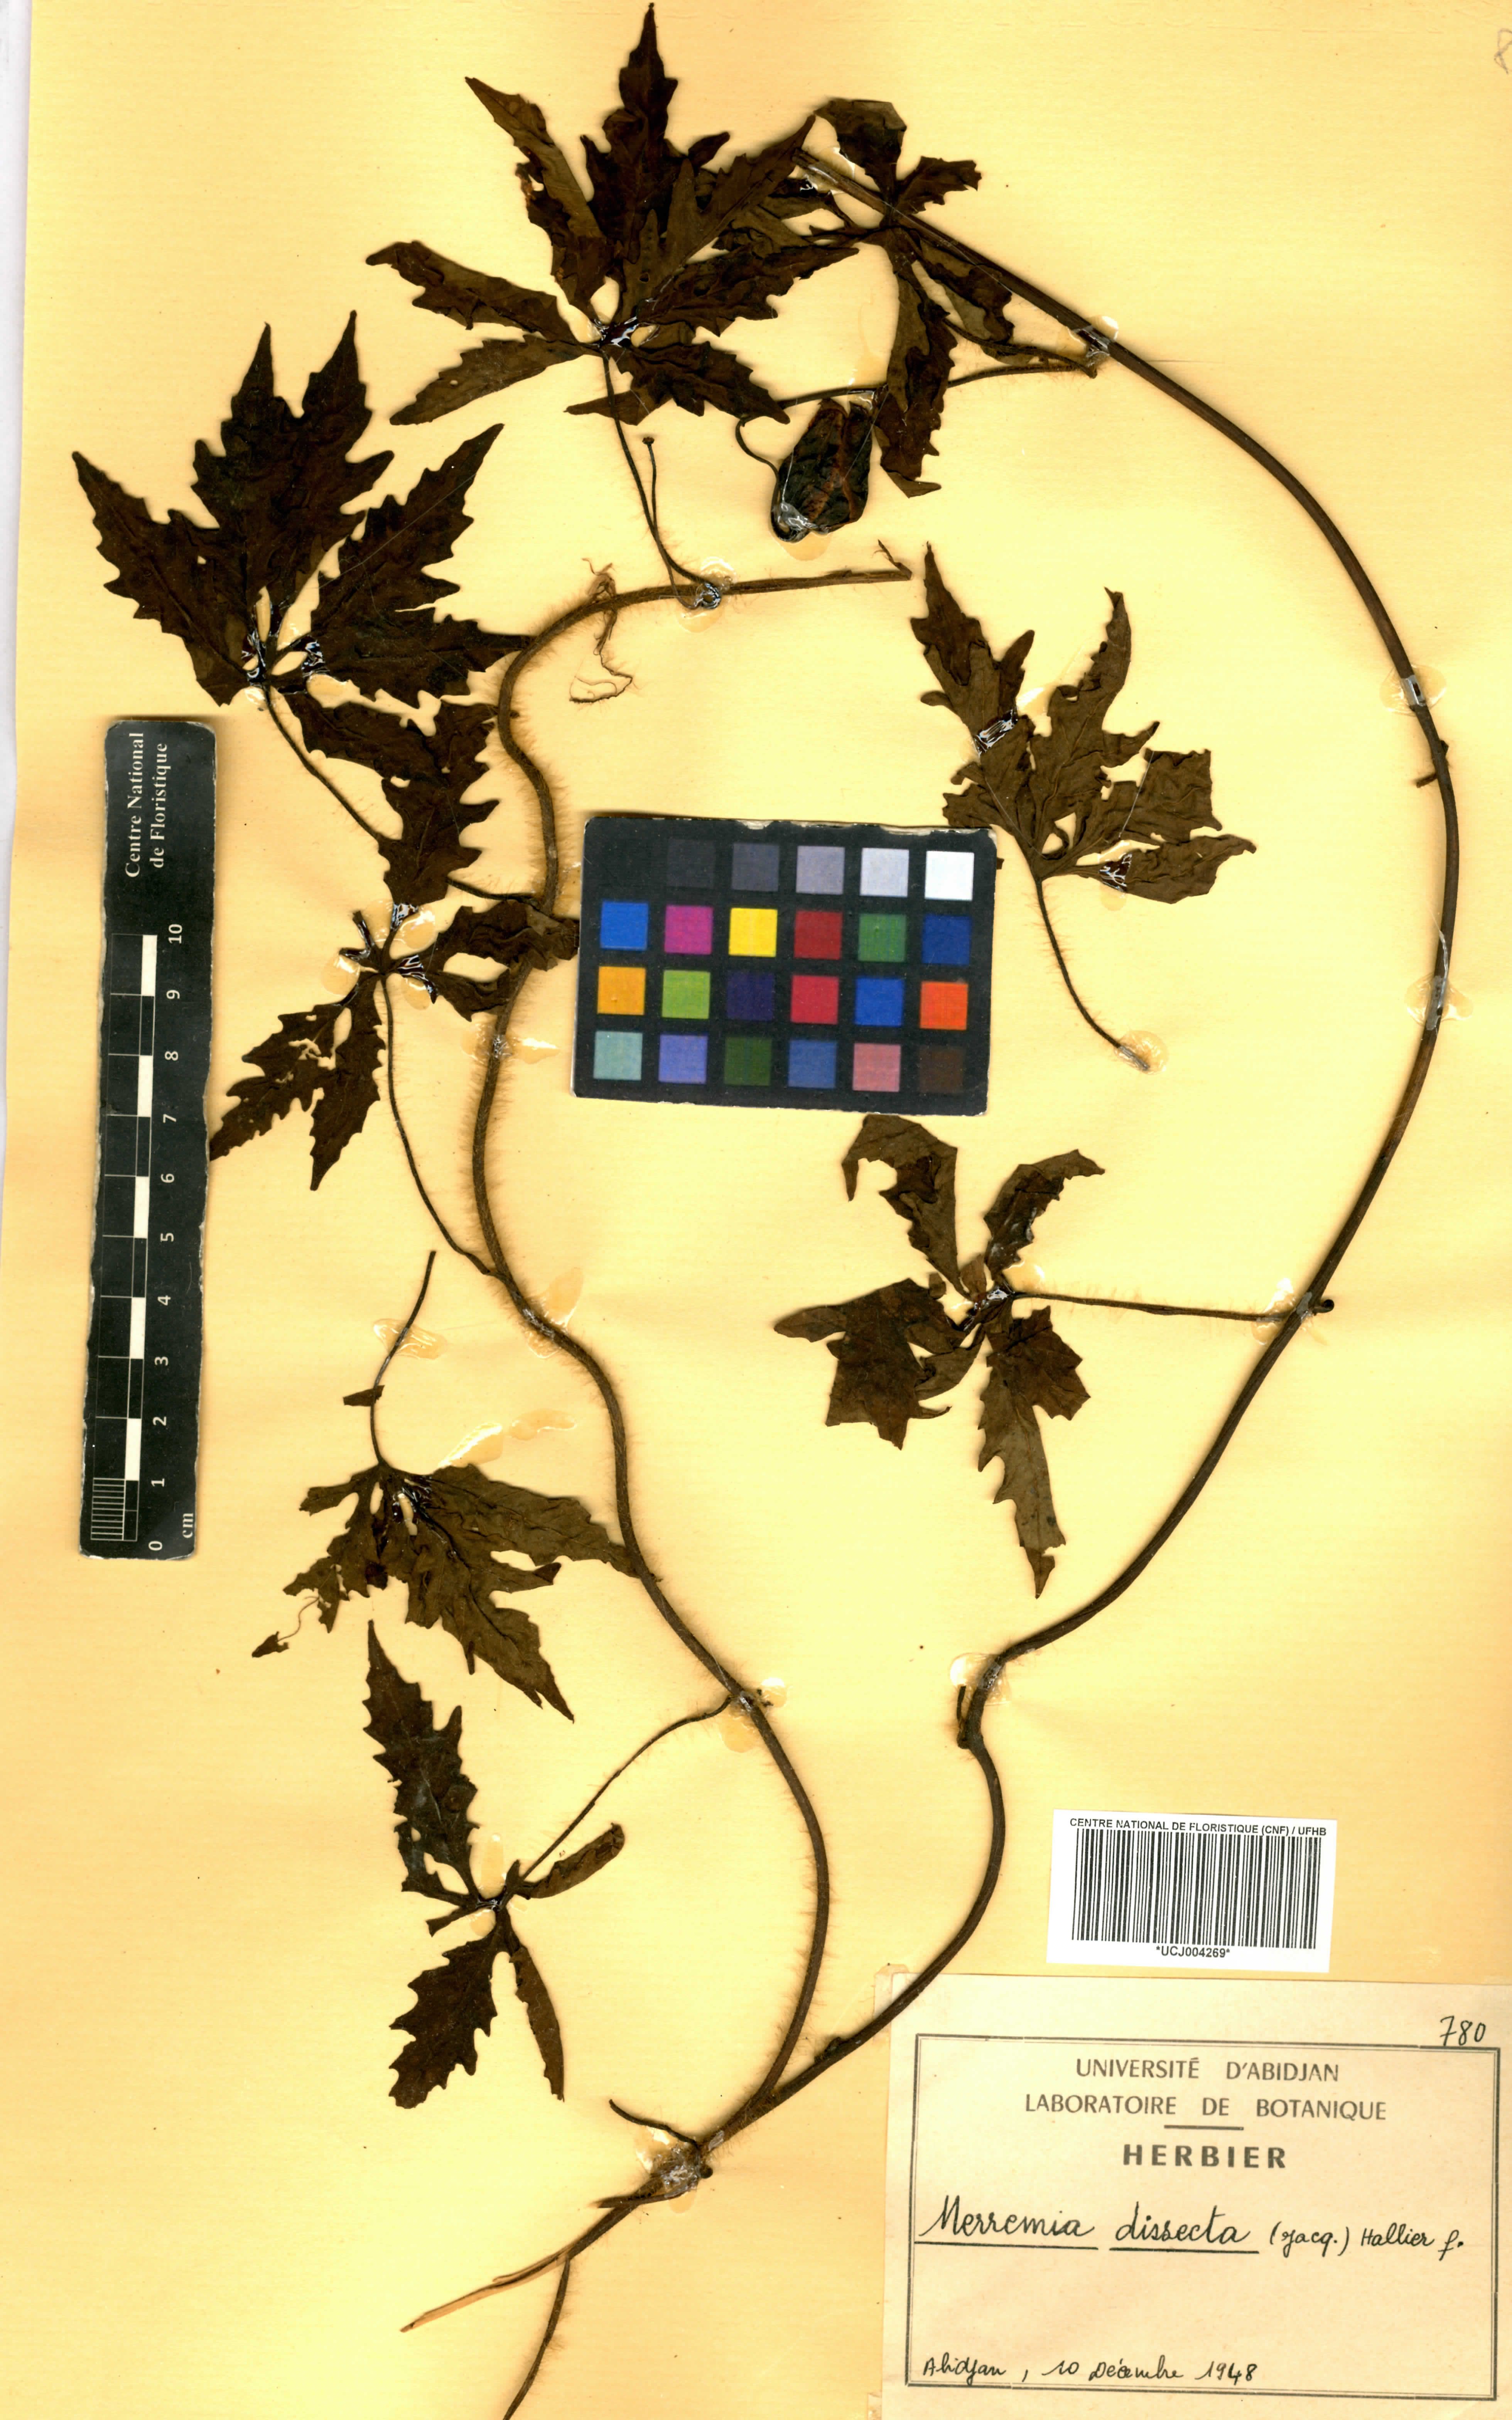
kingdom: Plantae
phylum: Tracheophyta
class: Magnoliopsida
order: Solanales
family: Convolvulaceae
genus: Distimake
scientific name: Distimake dissectus
